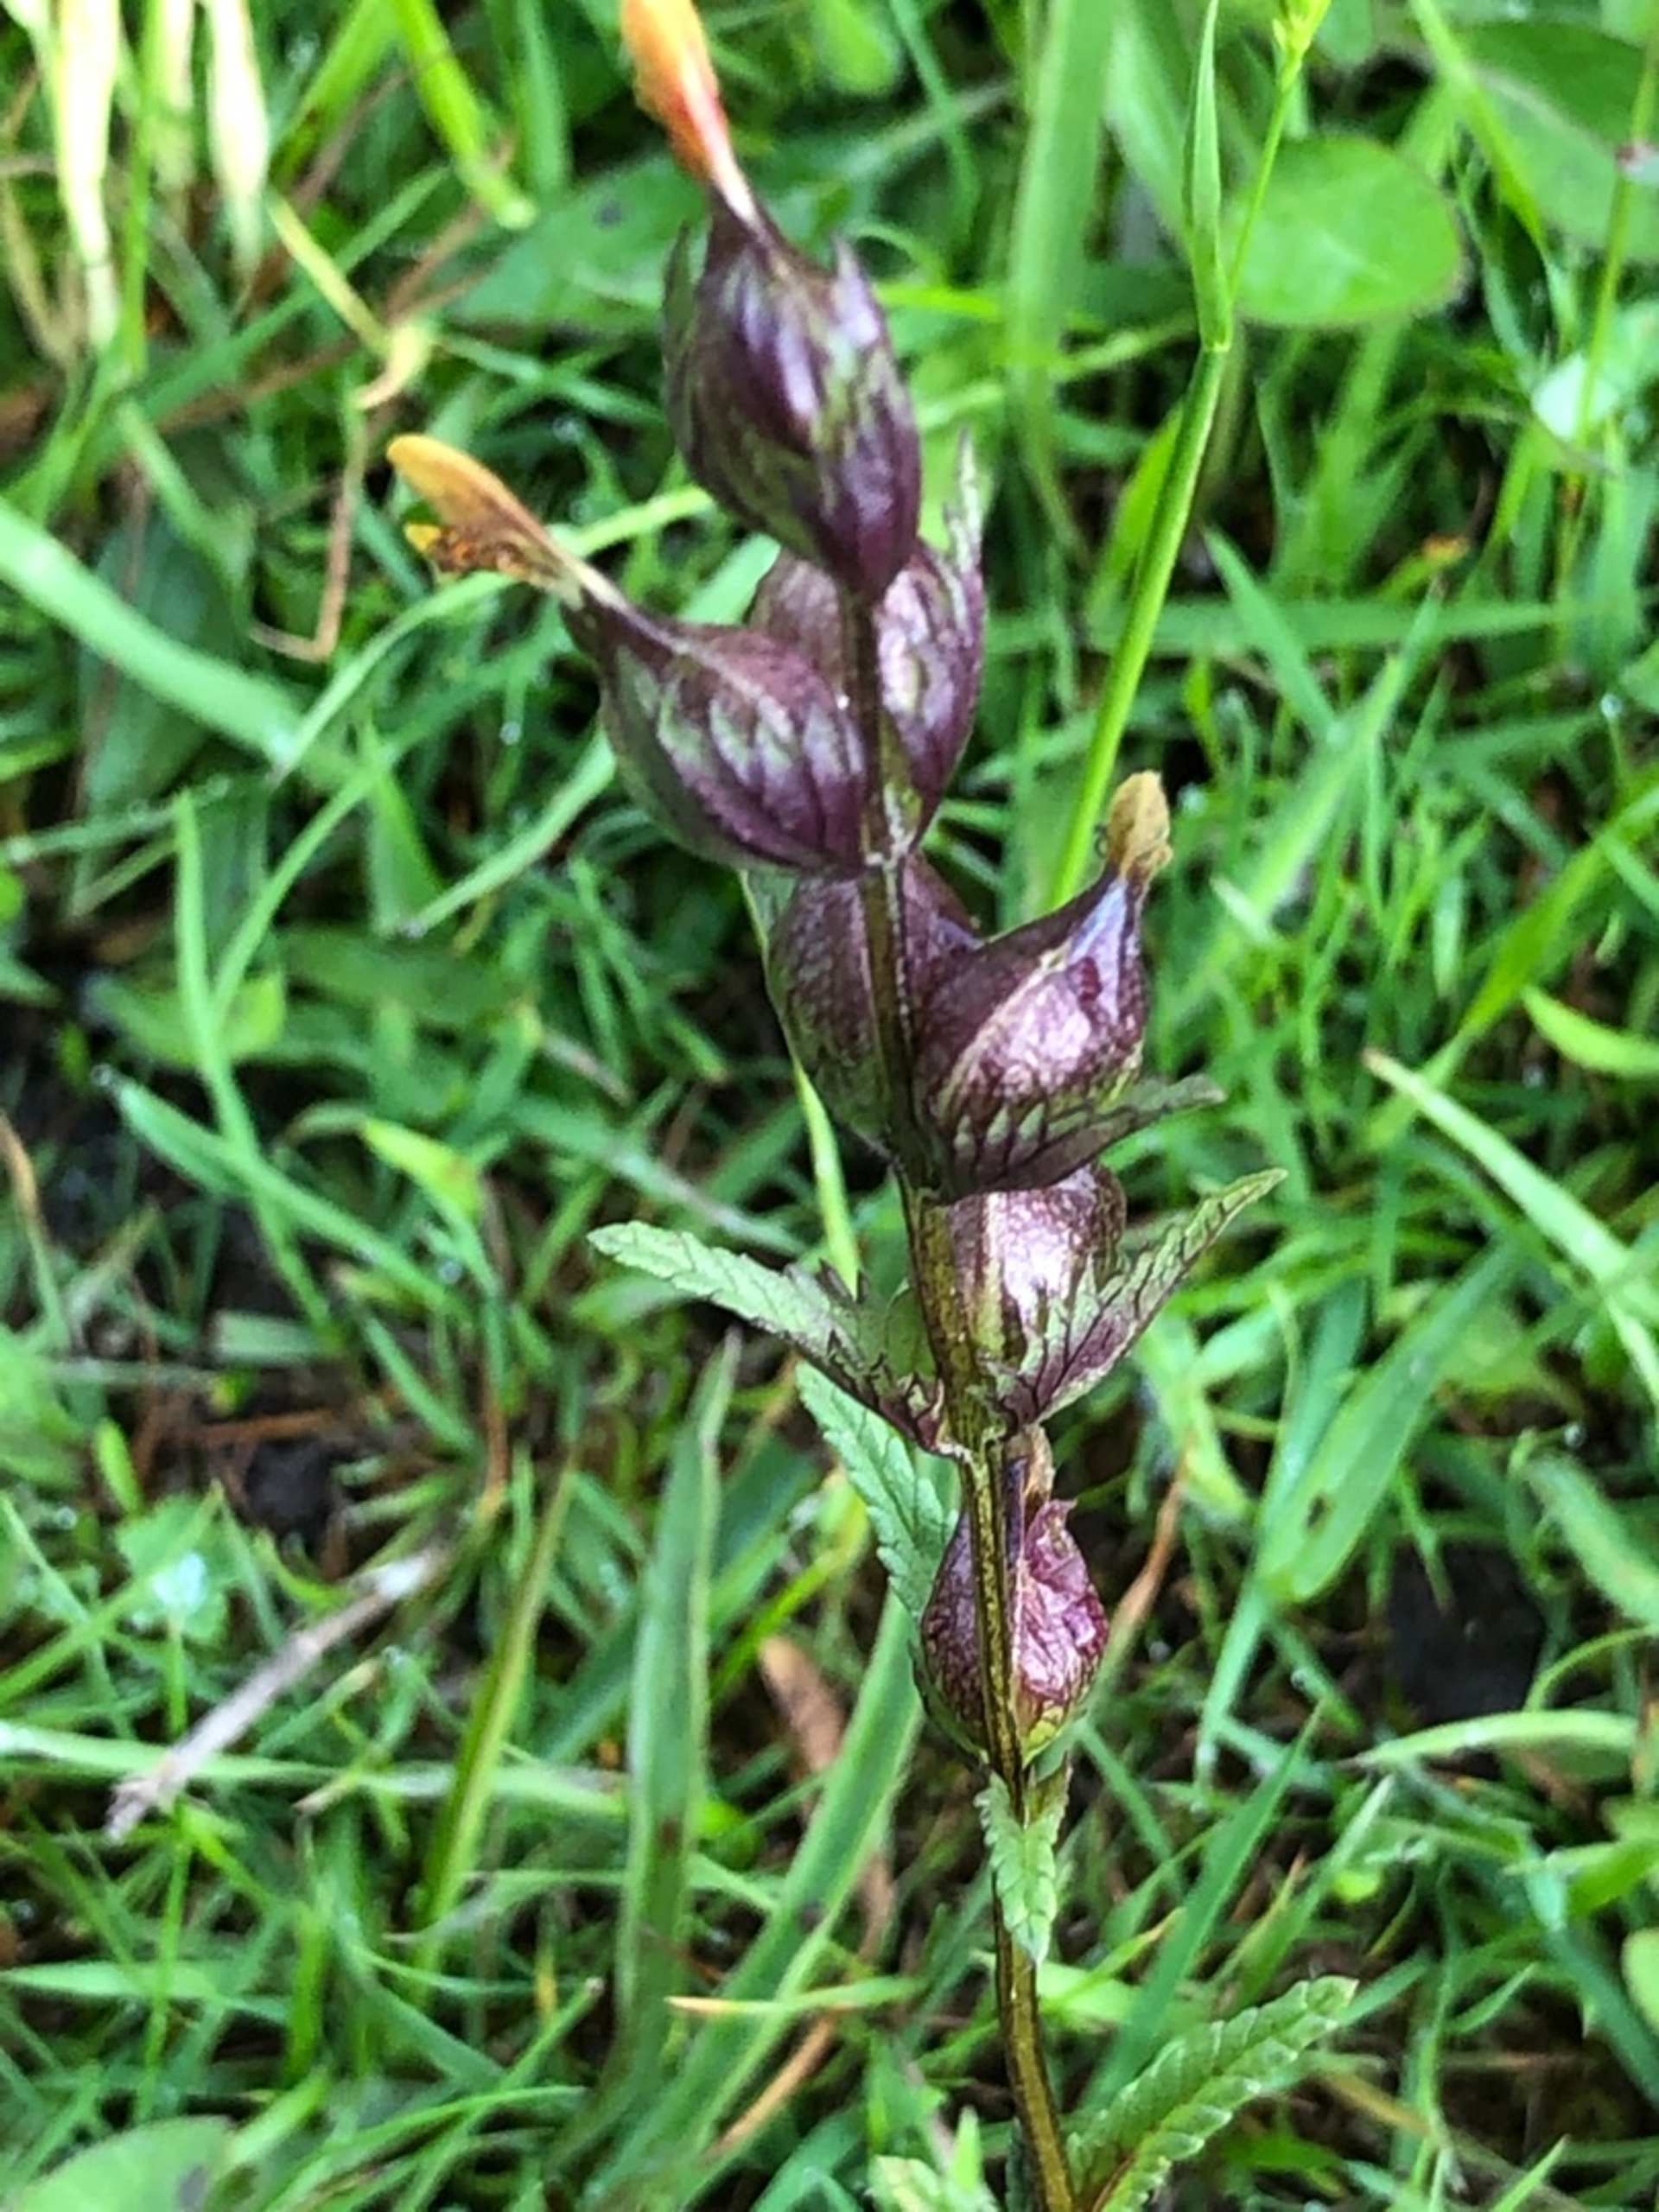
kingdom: Plantae
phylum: Tracheophyta
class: Magnoliopsida
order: Lamiales
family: Orobanchaceae
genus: Rhinanthus
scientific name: Rhinanthus
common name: Skjallerslægten
